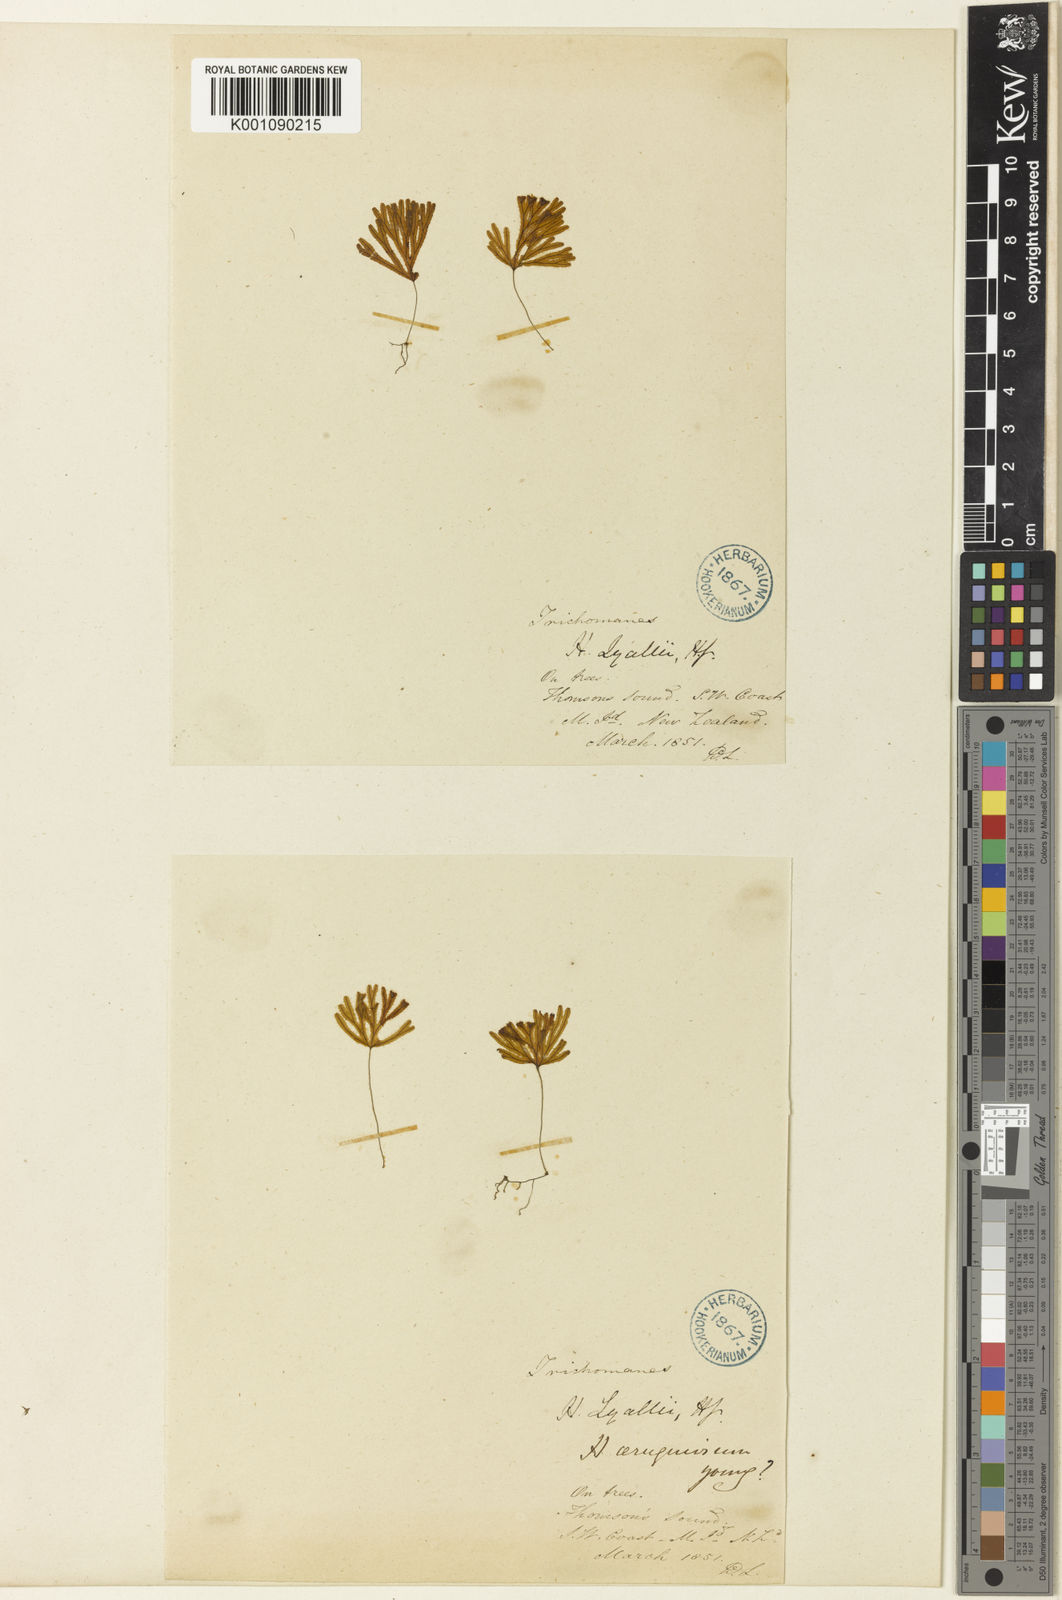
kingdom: Plantae
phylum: Tracheophyta
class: Polypodiopsida
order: Hymenophyllales
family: Hymenophyllaceae
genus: Hymenophyllum
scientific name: Hymenophyllum lyallii
